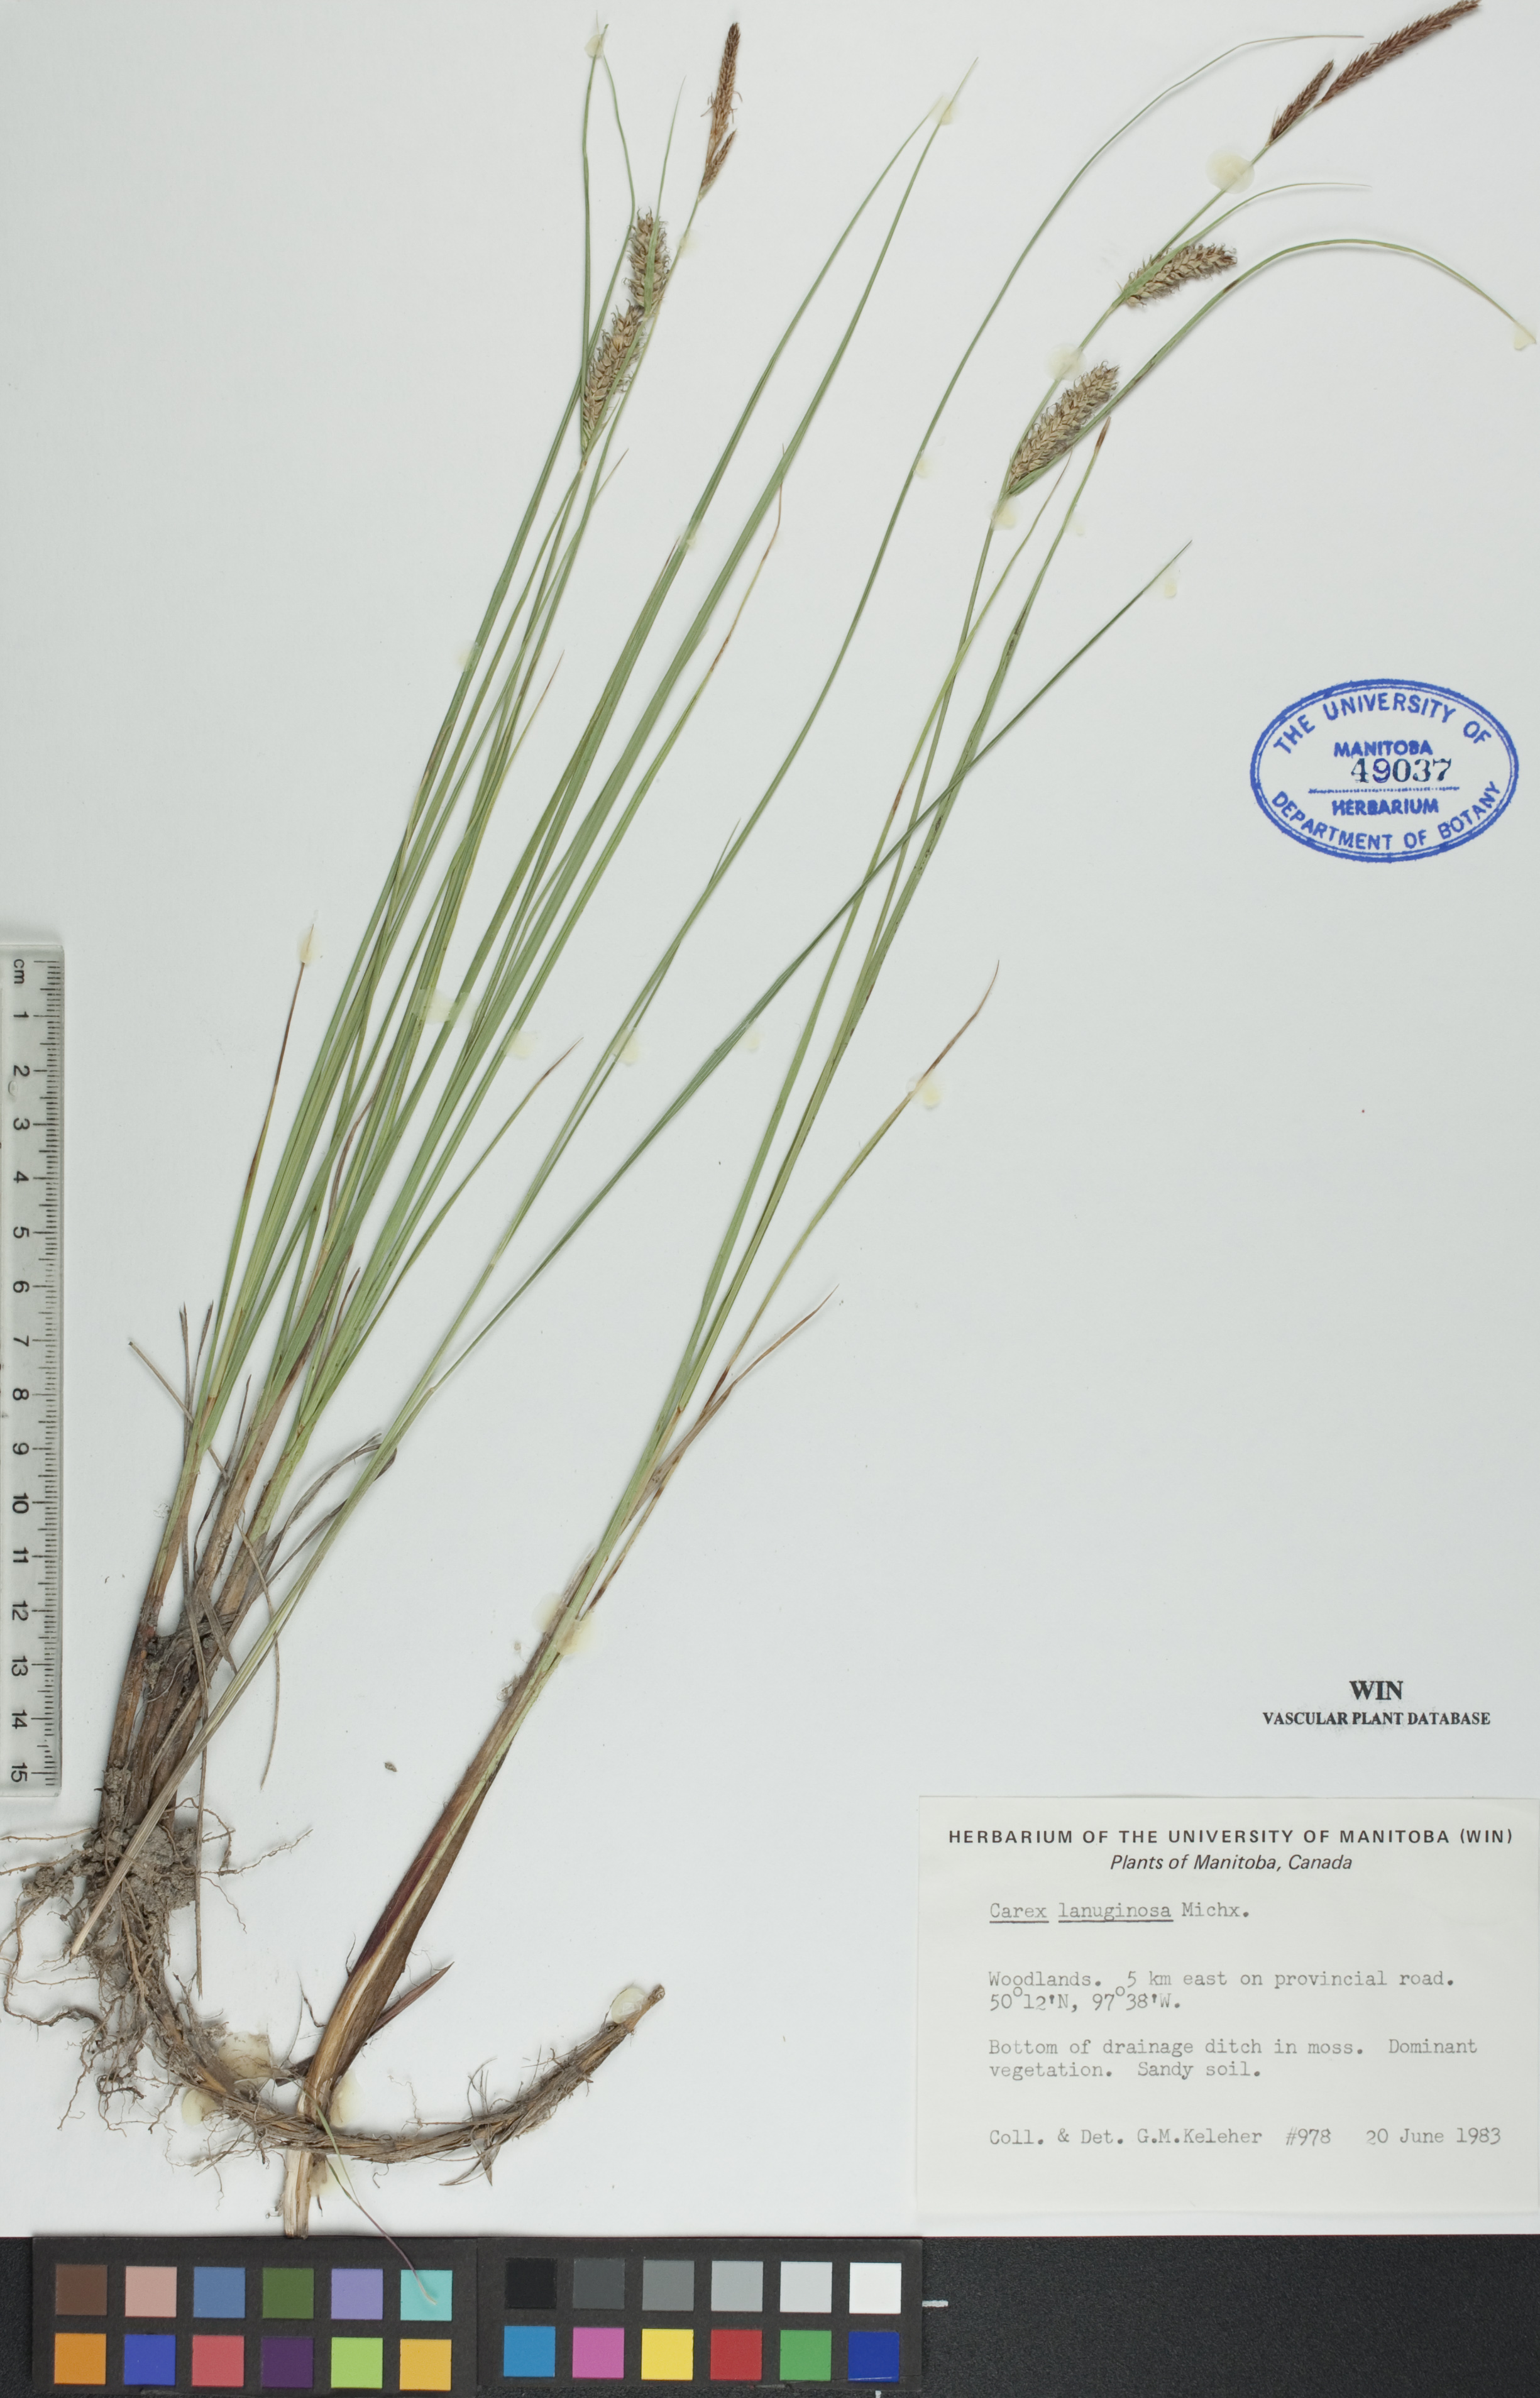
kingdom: Plantae
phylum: Tracheophyta
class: Liliopsida
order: Poales
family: Cyperaceae
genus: Carex
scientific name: Carex lasiocarpa
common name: Slender sedge
